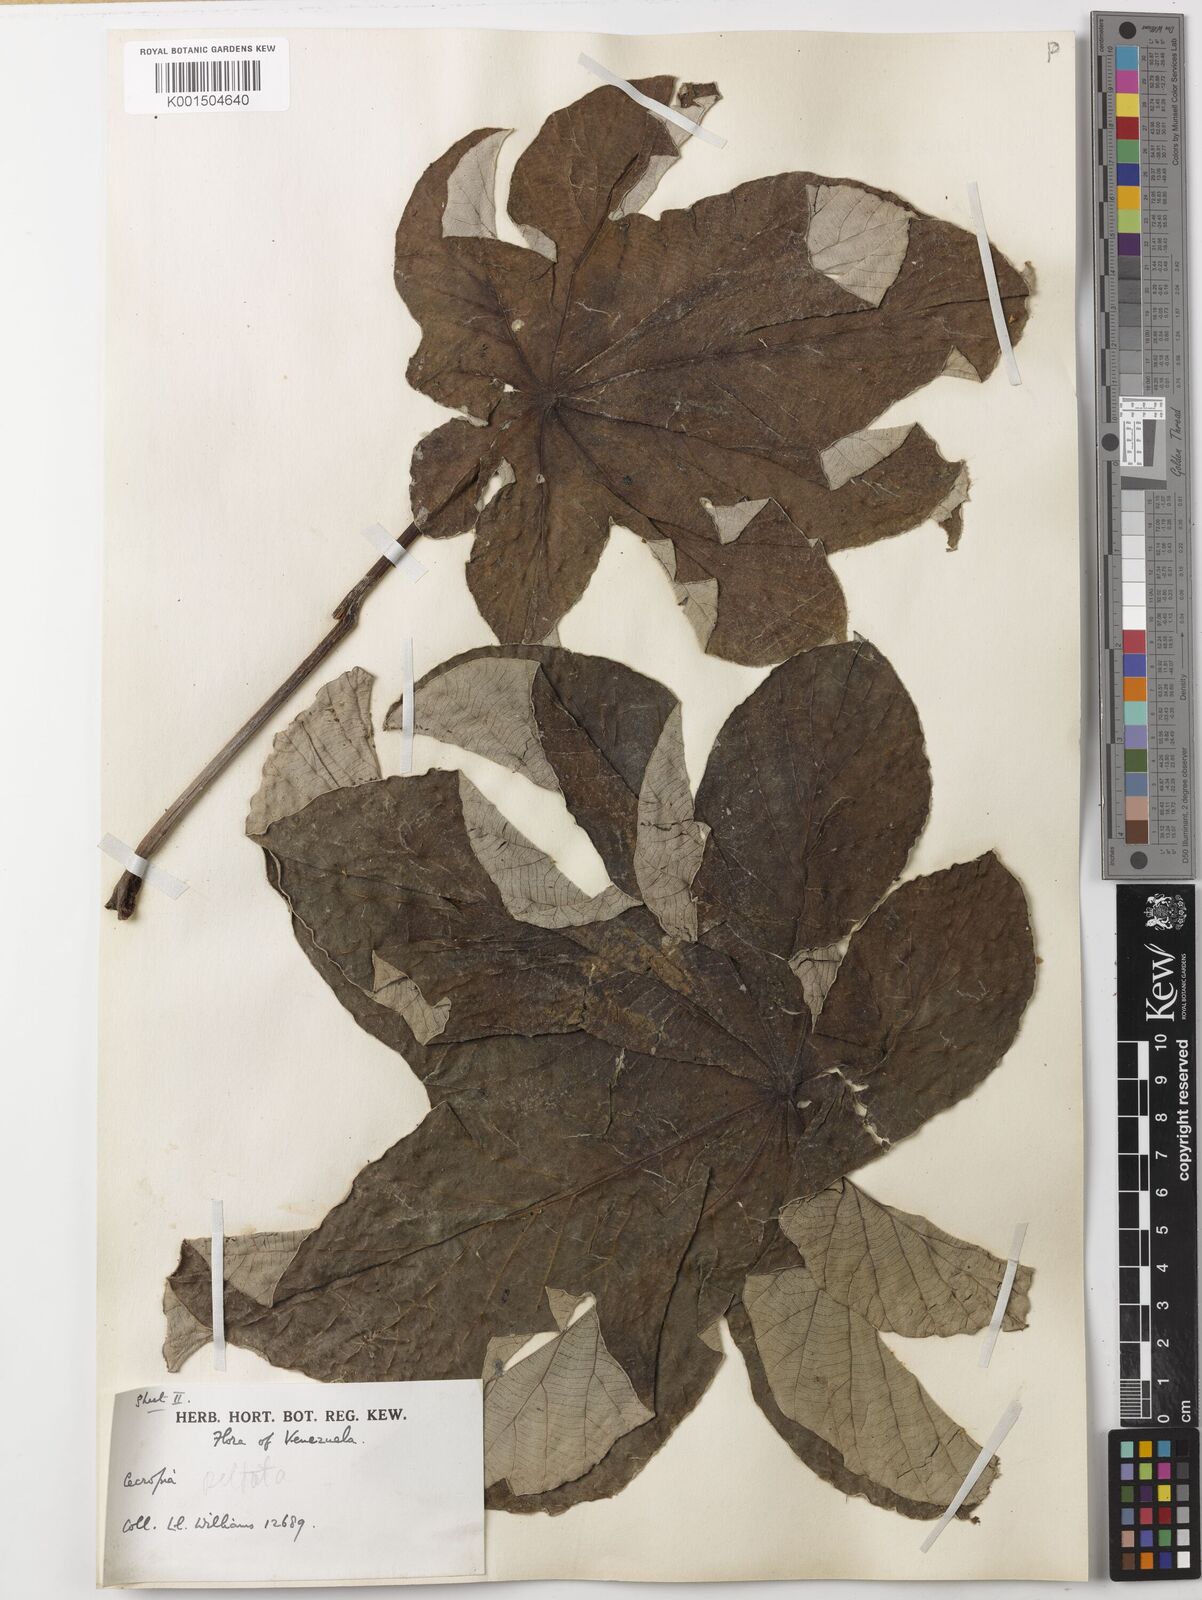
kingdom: Plantae
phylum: Tracheophyta
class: Magnoliopsida
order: Rosales
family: Urticaceae
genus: Cecropia
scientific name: Cecropia peltata
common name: Trumpet-tree
